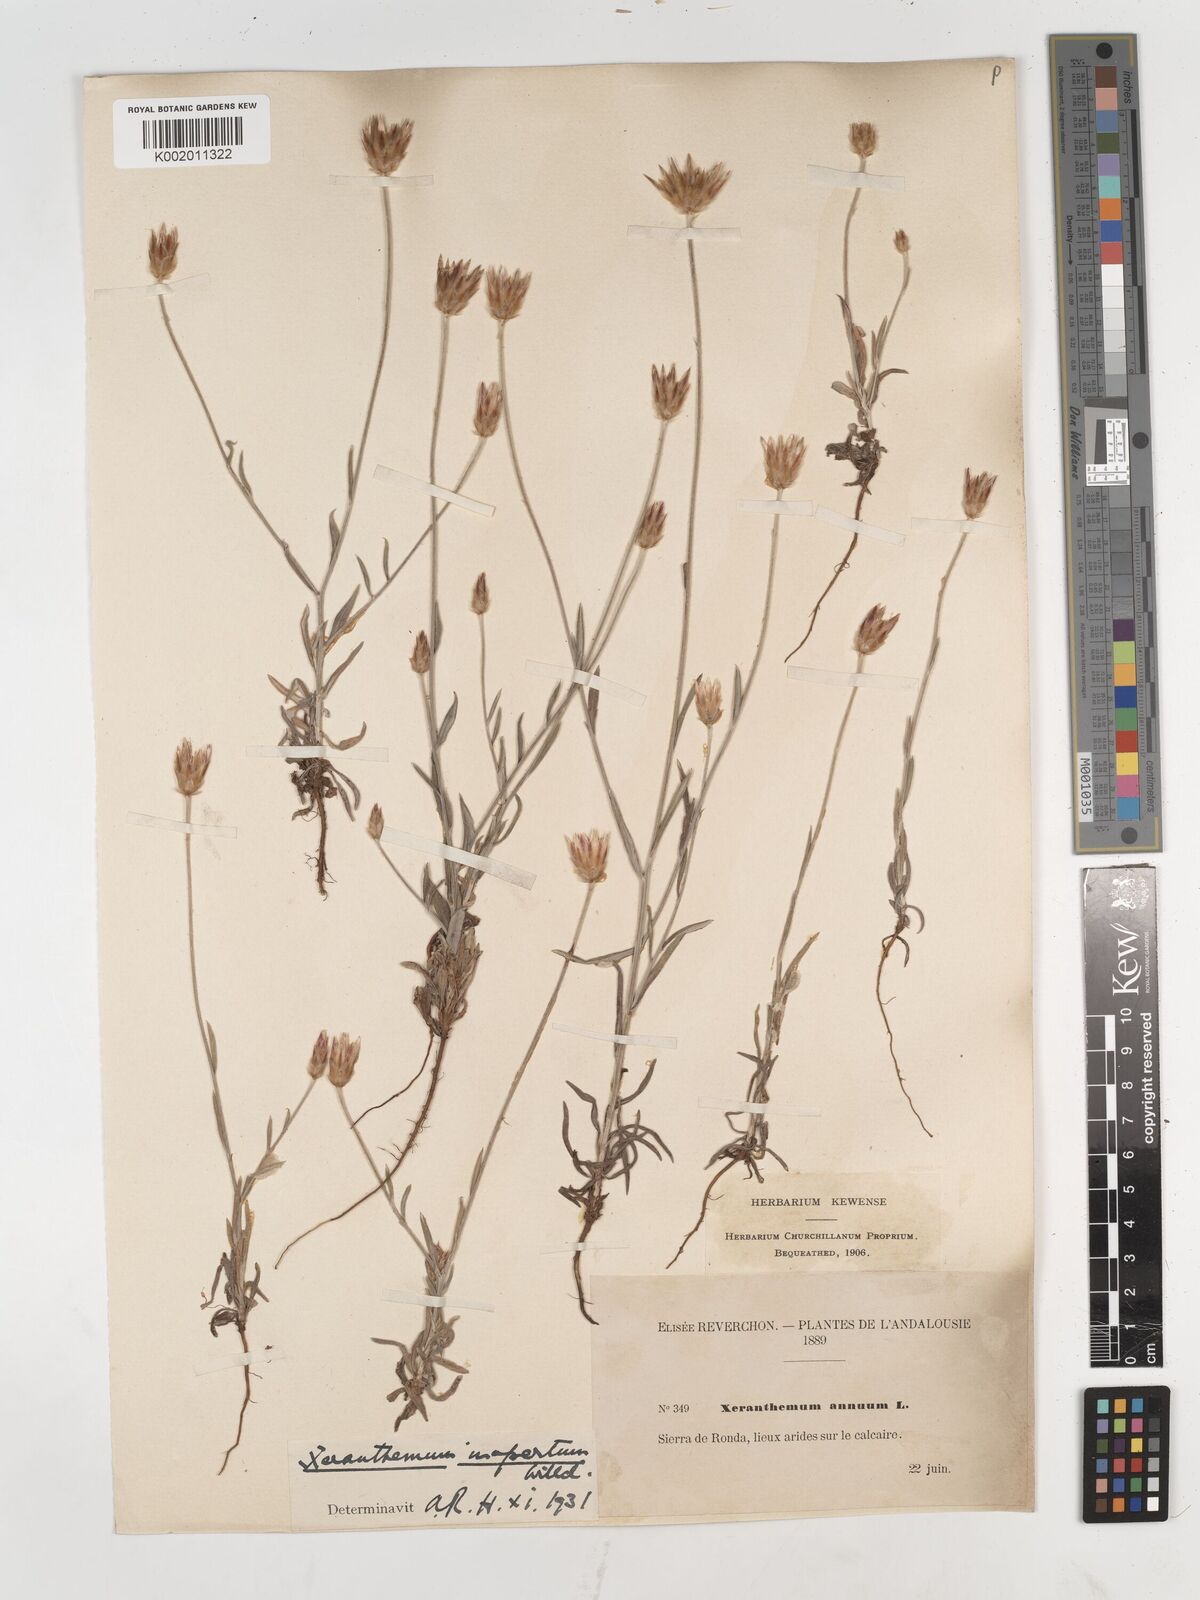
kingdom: Plantae
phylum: Tracheophyta
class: Magnoliopsida
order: Asterales
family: Asteraceae
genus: Xeranthemum
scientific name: Xeranthemum inapertum
